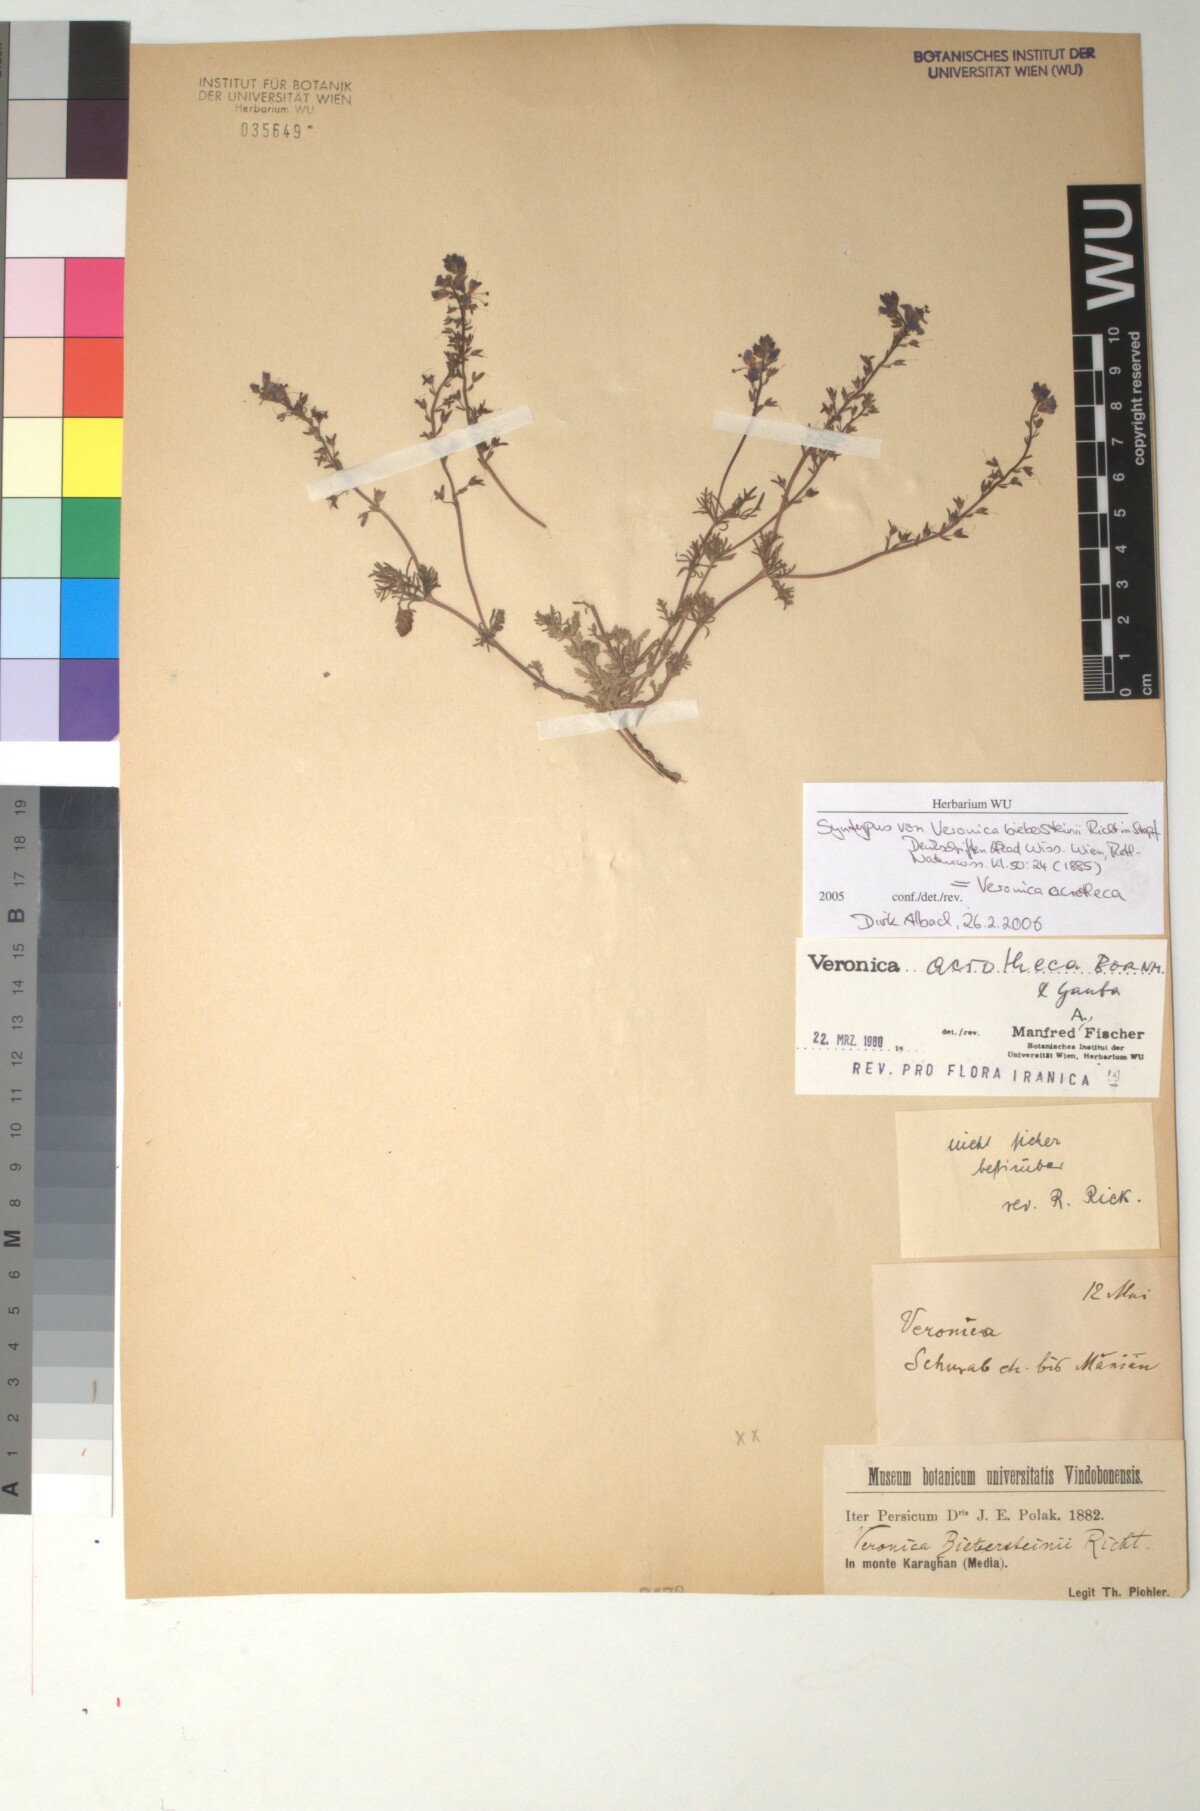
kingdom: Plantae
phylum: Tracheophyta
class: Magnoliopsida
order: Lamiales
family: Plantaginaceae
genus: Veronica
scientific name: Veronica multifida
